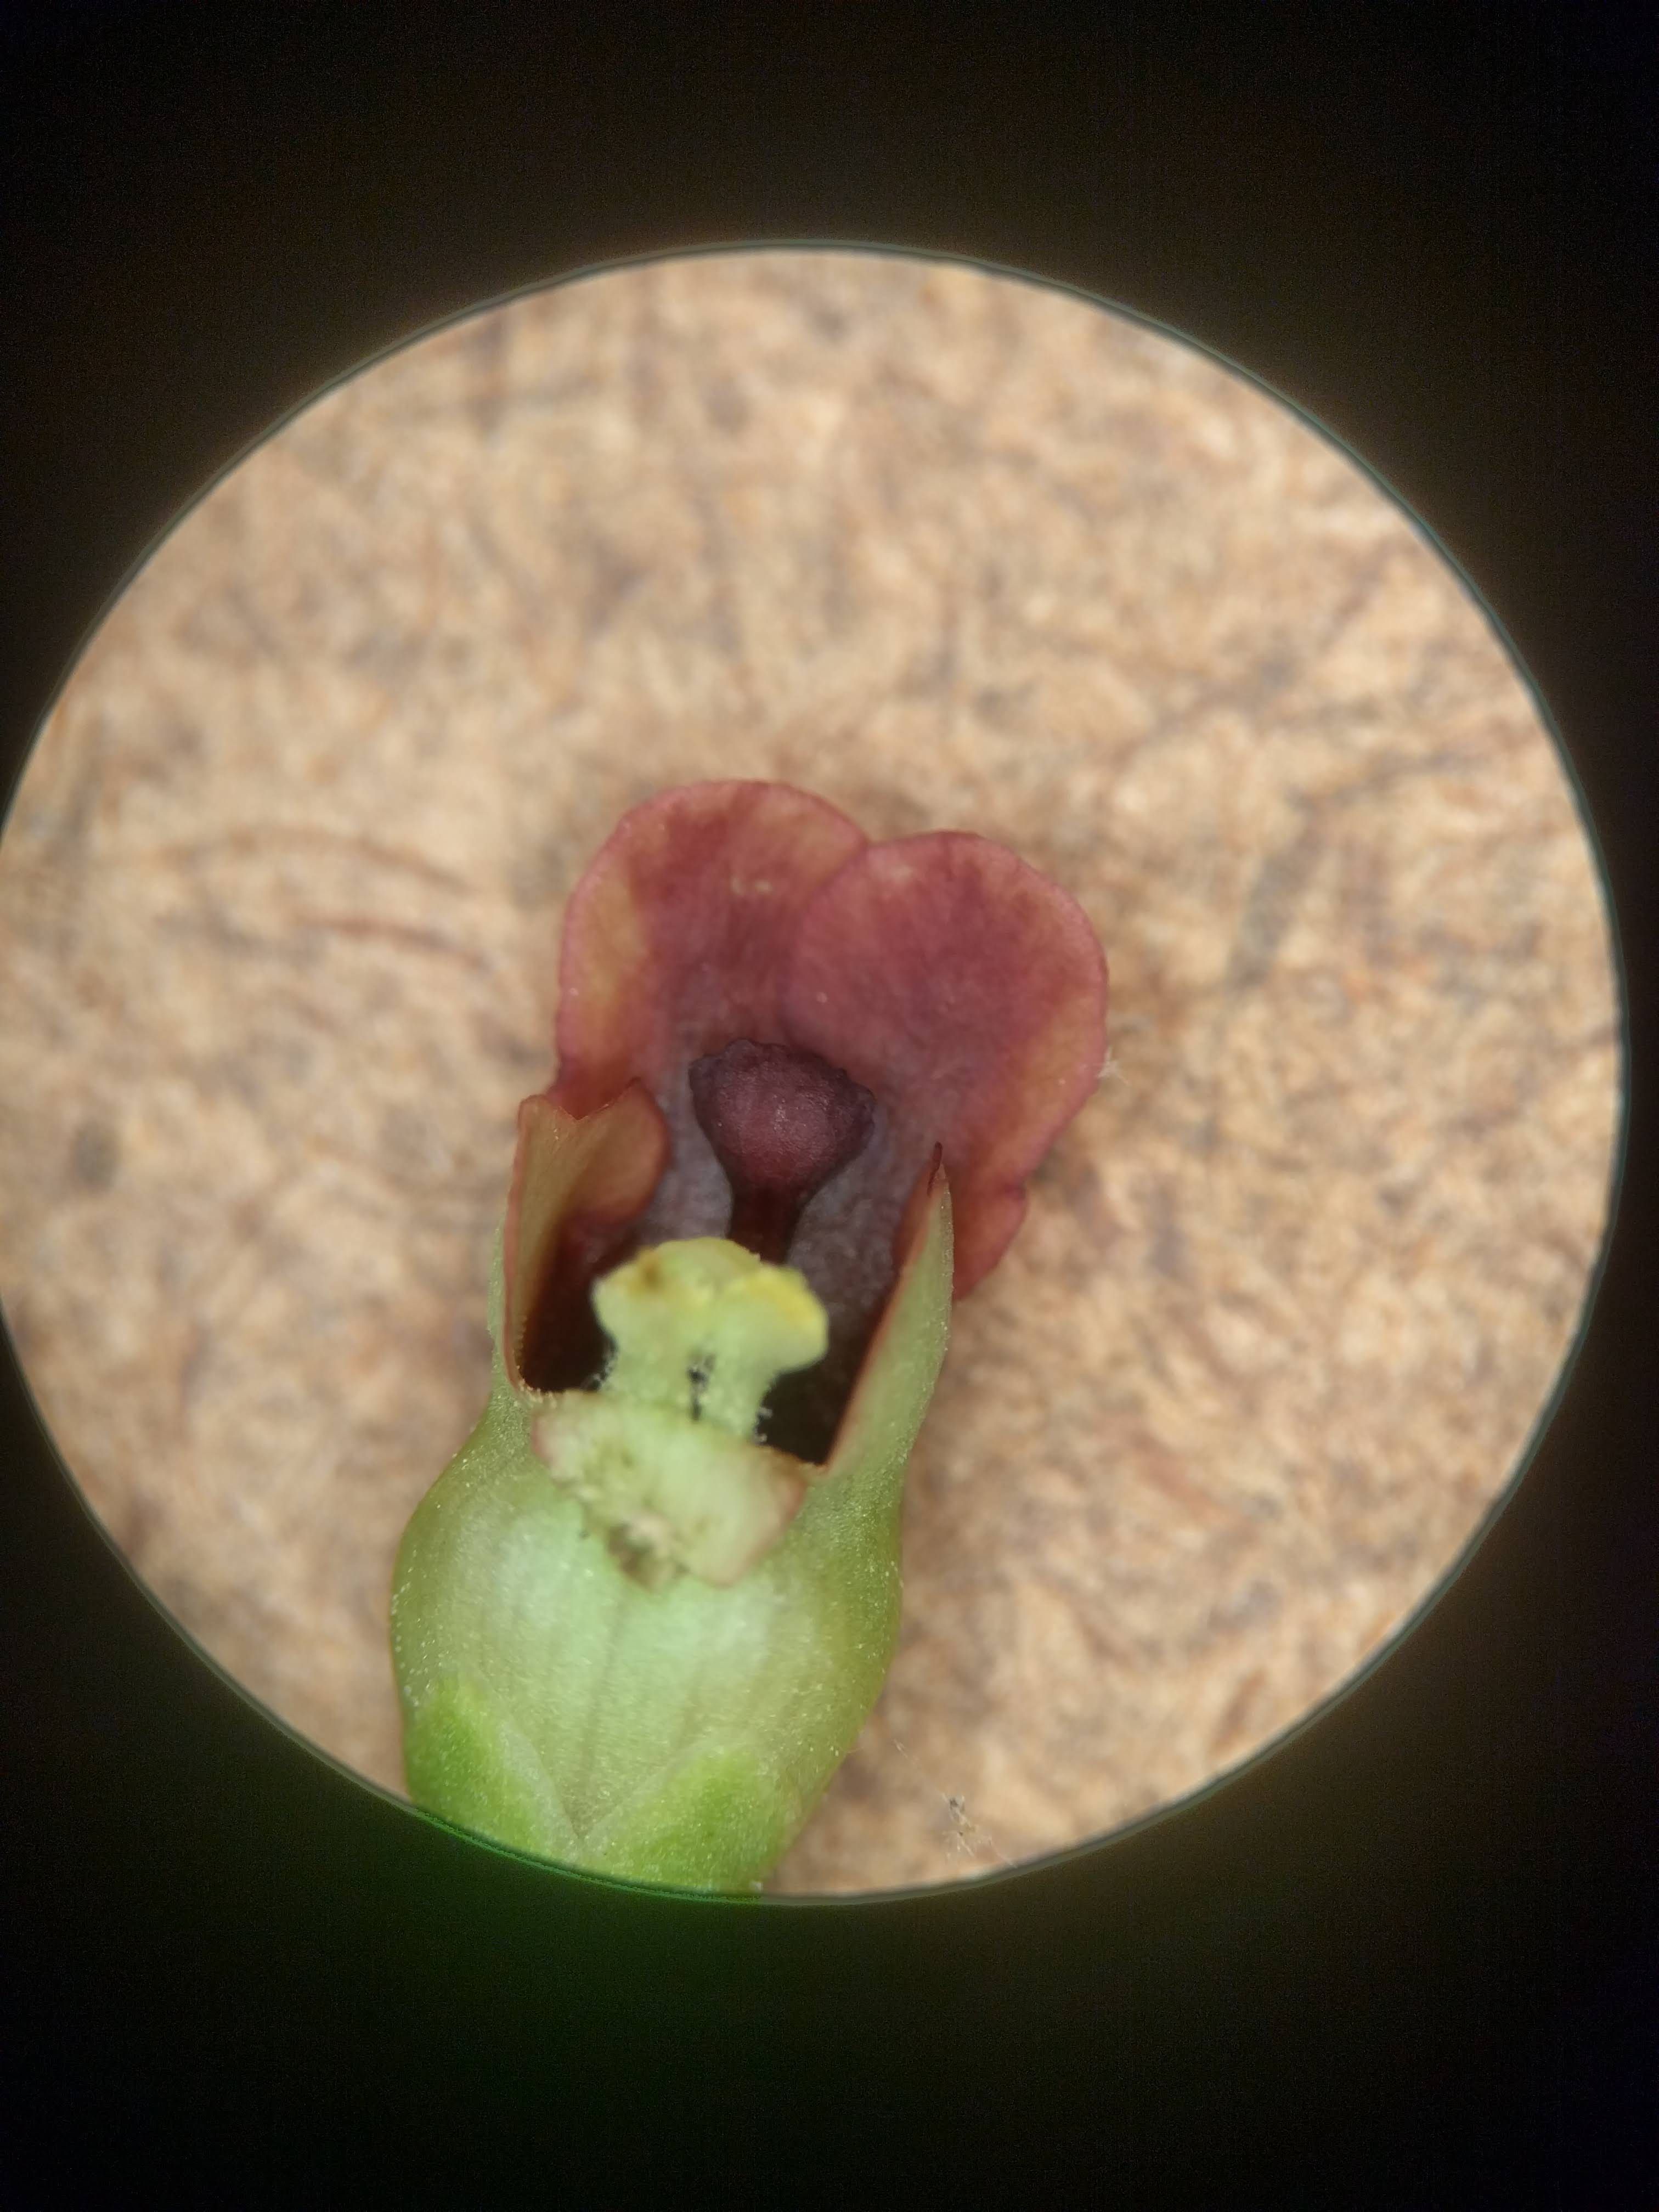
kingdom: Plantae
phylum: Tracheophyta
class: Magnoliopsida
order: Lamiales
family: Scrophulariaceae
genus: Scrophularia
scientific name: Scrophularia marilandica
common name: Eastern figwort
